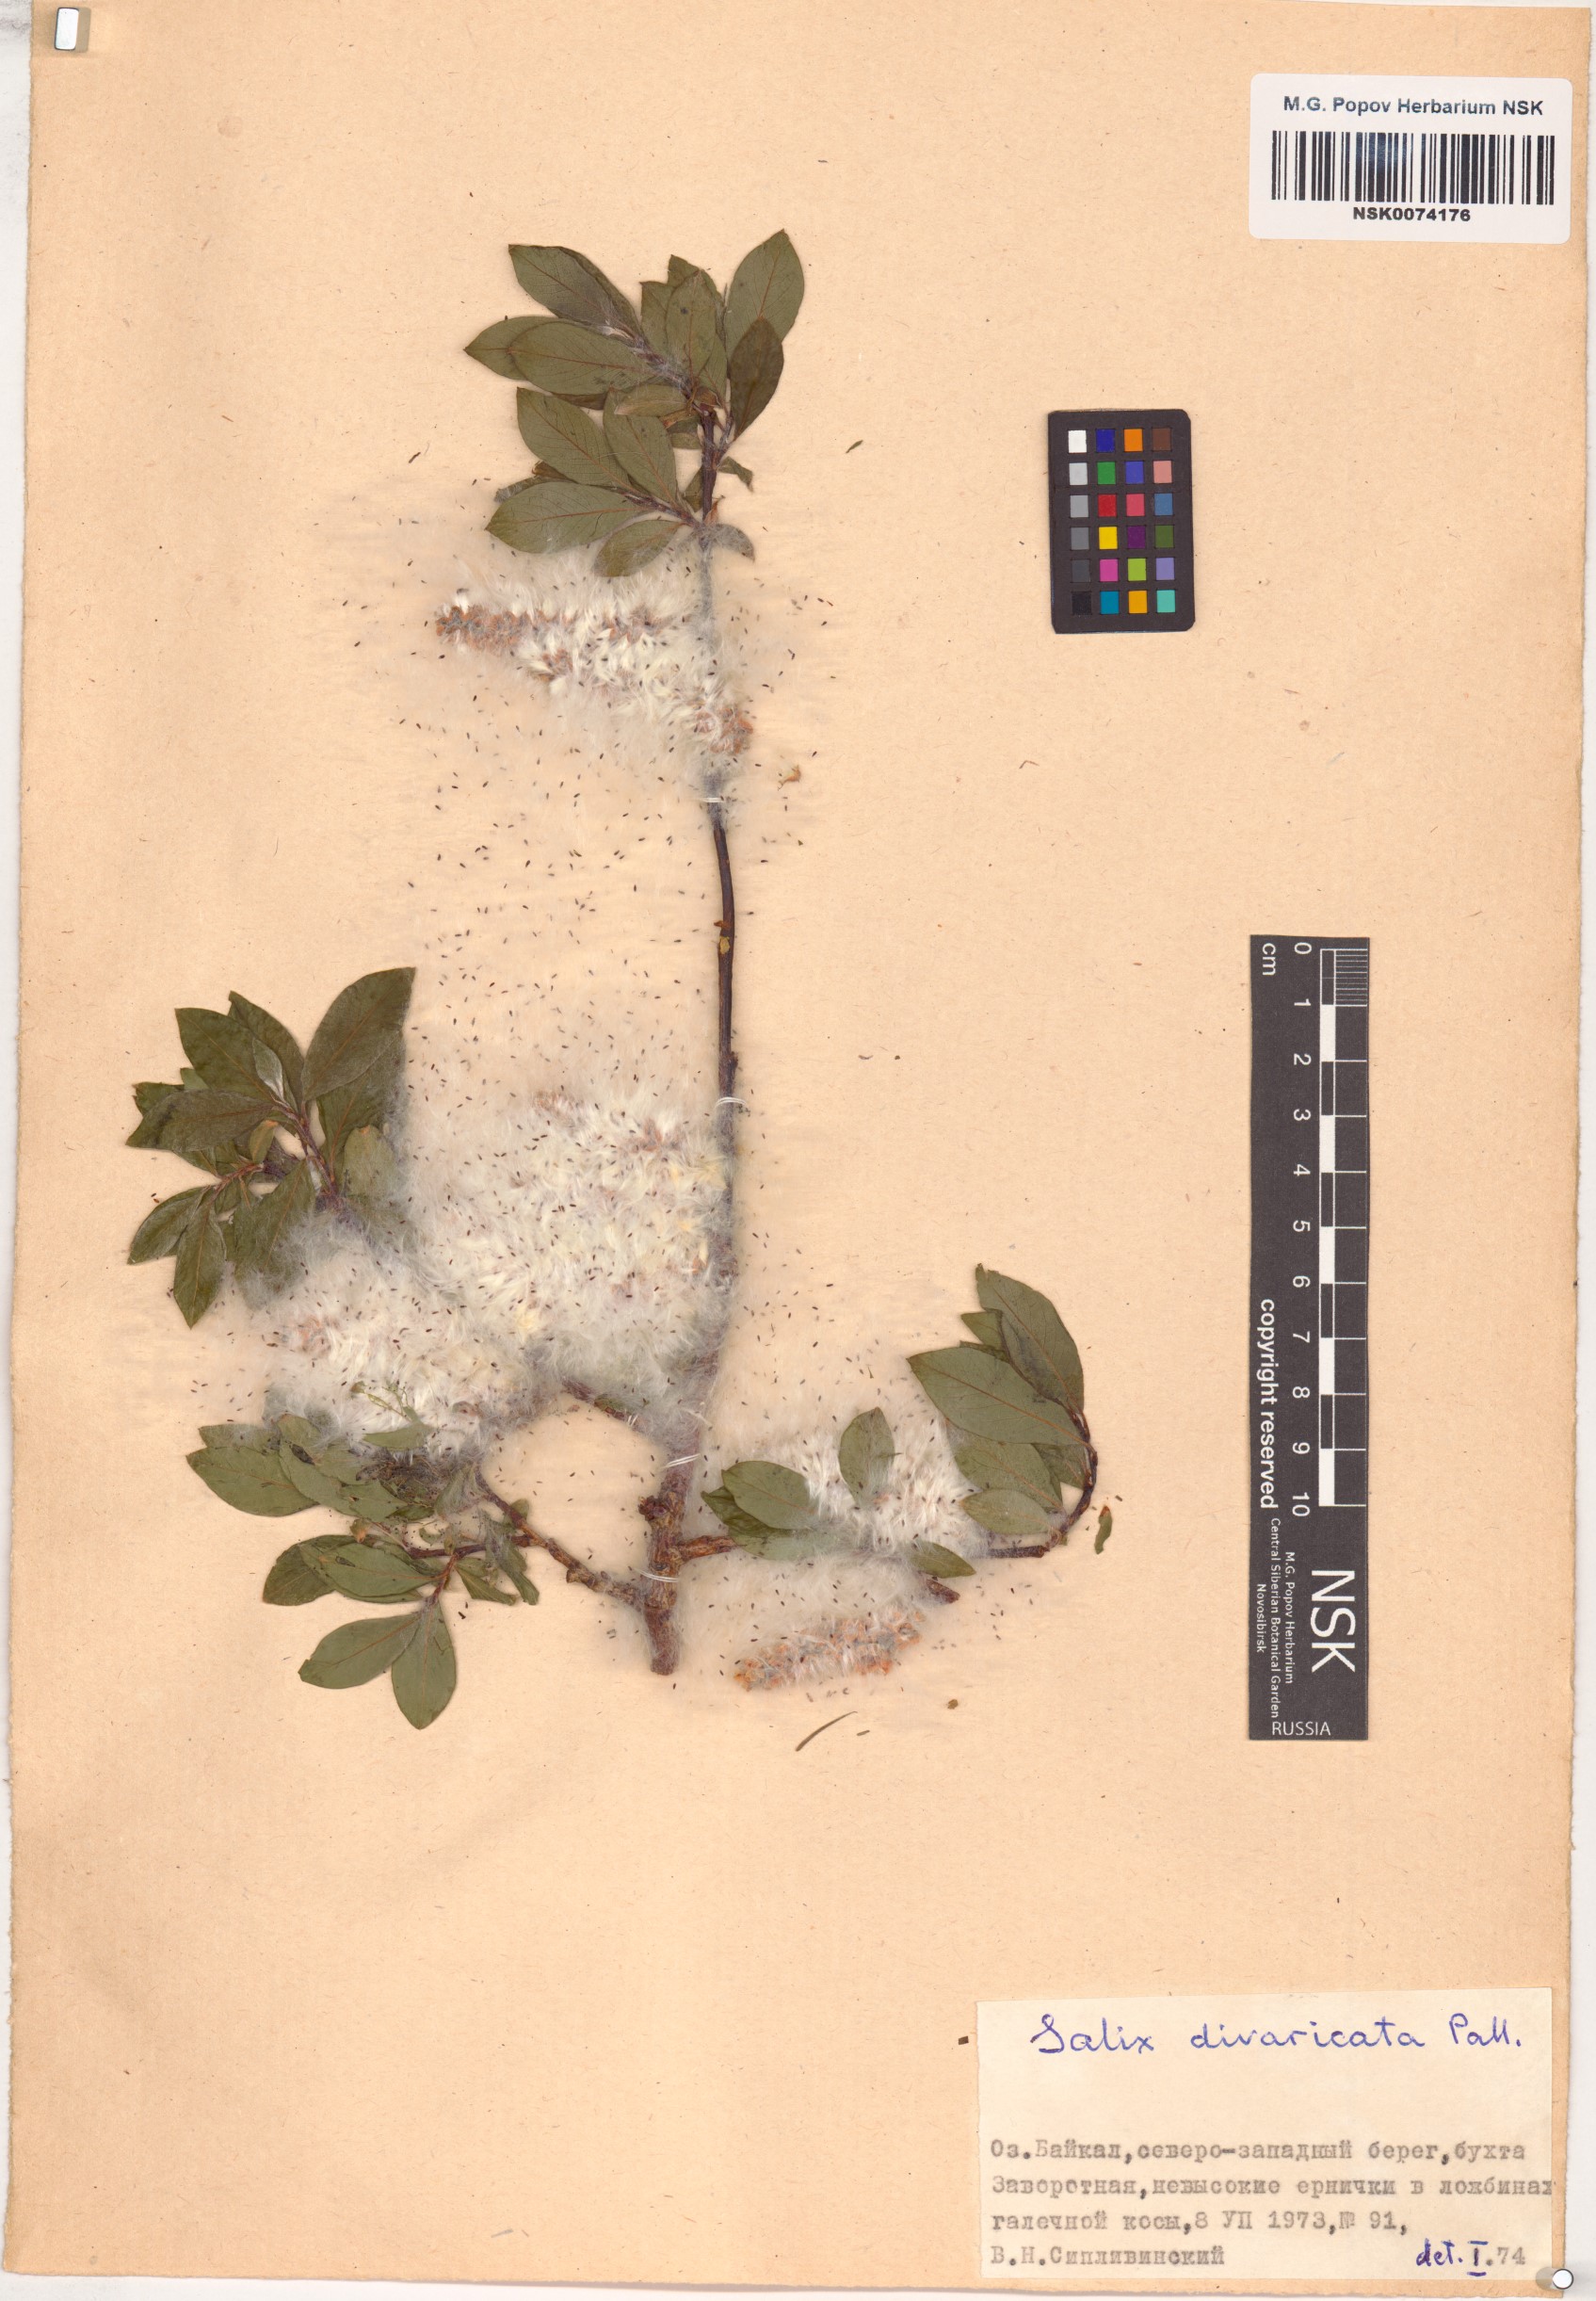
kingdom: Plantae
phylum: Tracheophyta
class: Magnoliopsida
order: Malpighiales
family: Salicaceae
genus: Salix
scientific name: Salix divaricata
